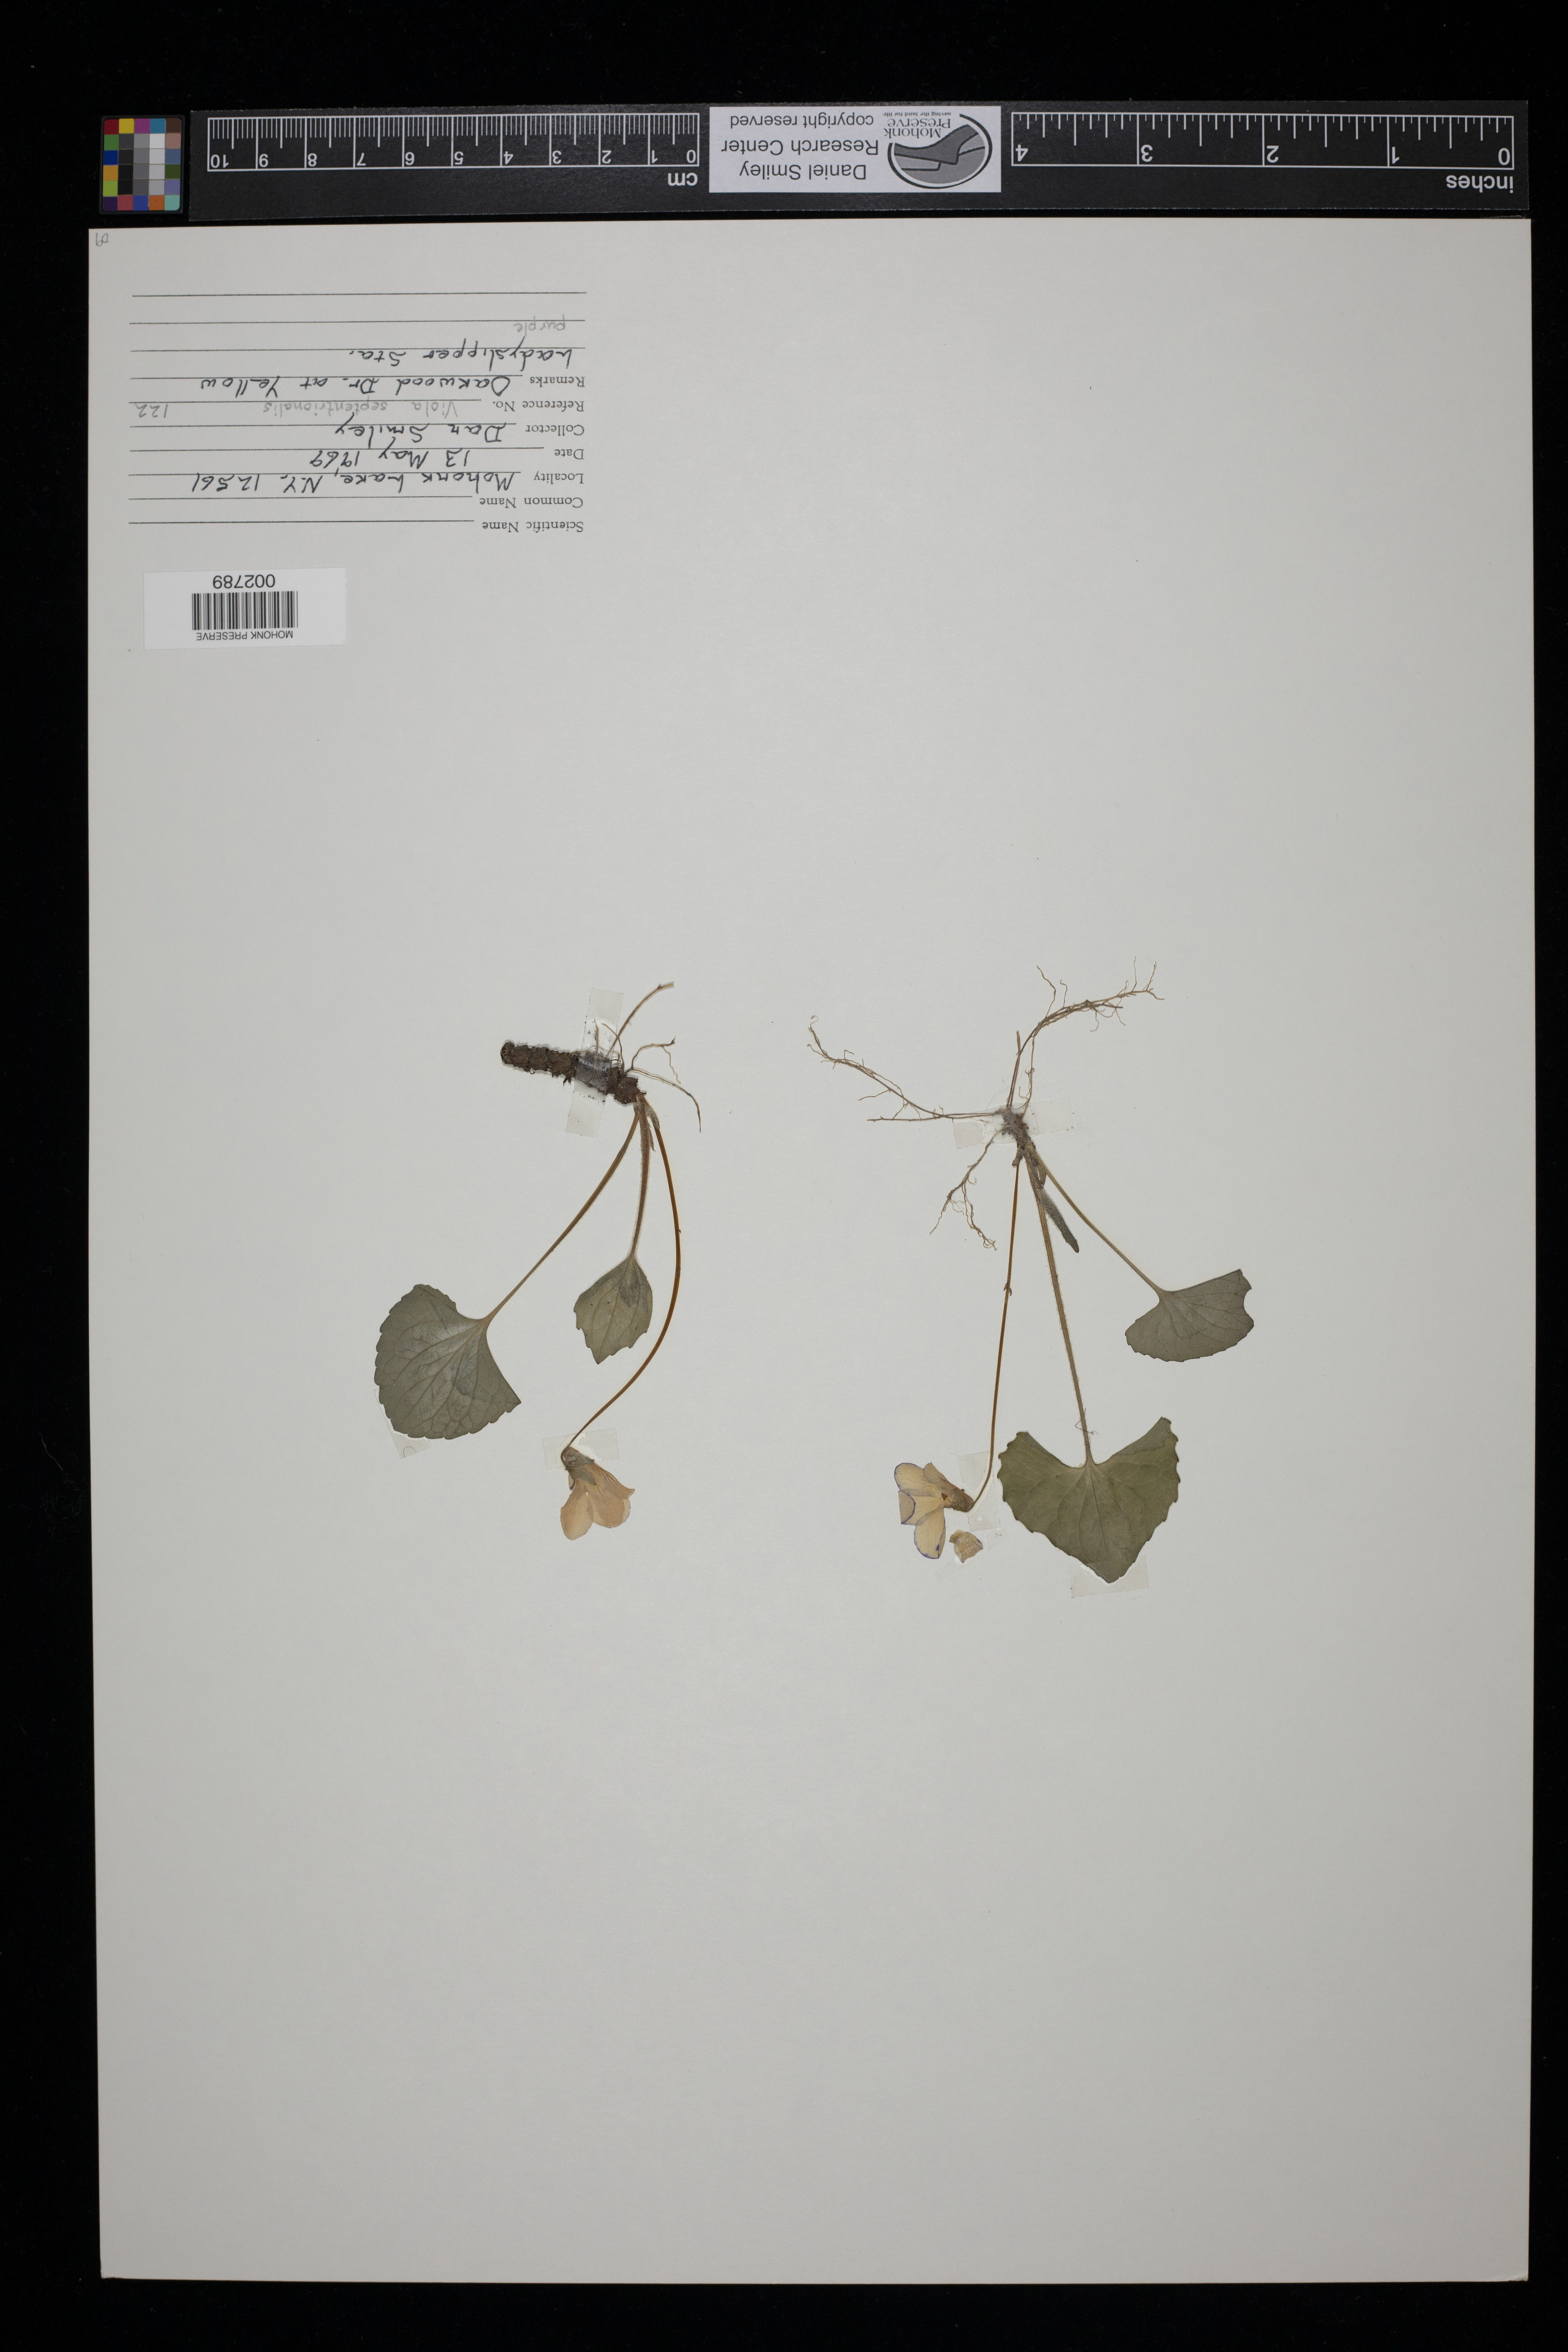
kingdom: Plantae
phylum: Tracheophyta
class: Magnoliopsida
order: Malpighiales
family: Violaceae
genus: Viola
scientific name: Viola sororia
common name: Dooryard violet
